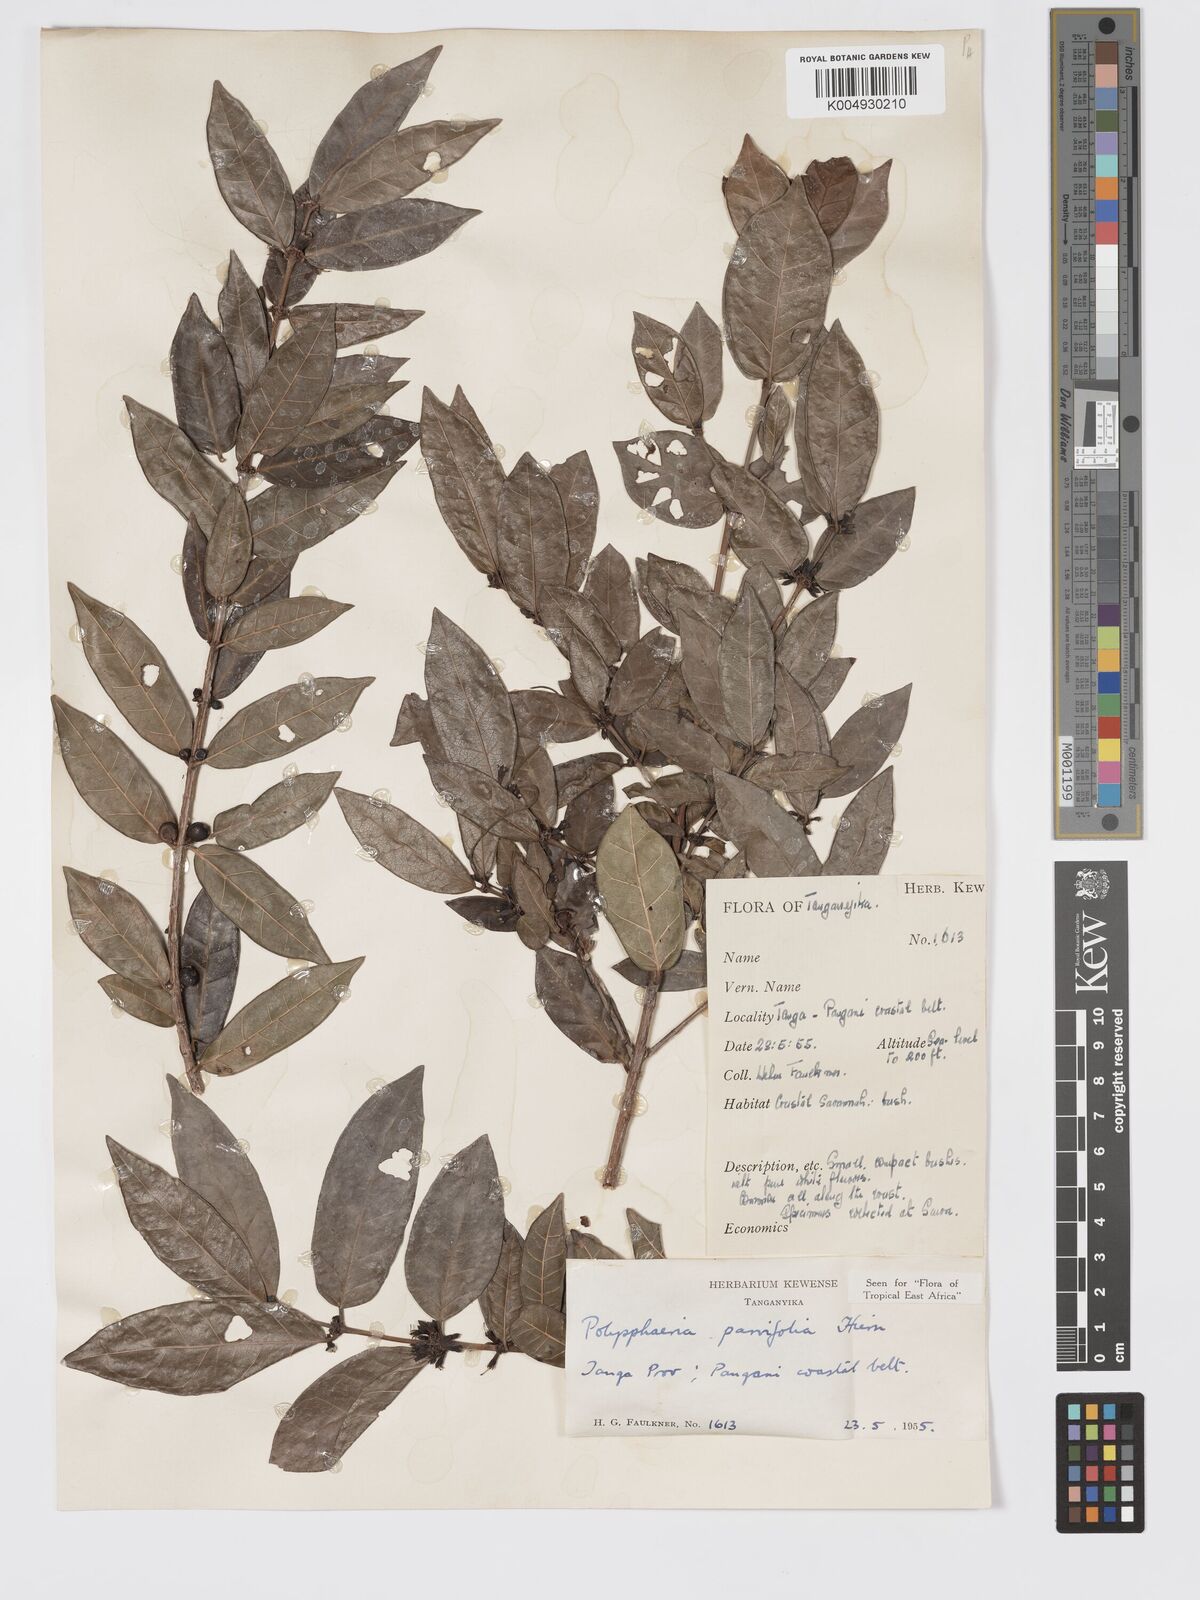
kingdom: Plantae
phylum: Tracheophyta
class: Magnoliopsida
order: Gentianales
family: Rubiaceae
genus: Polysphaeria
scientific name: Polysphaeria parvifolia
